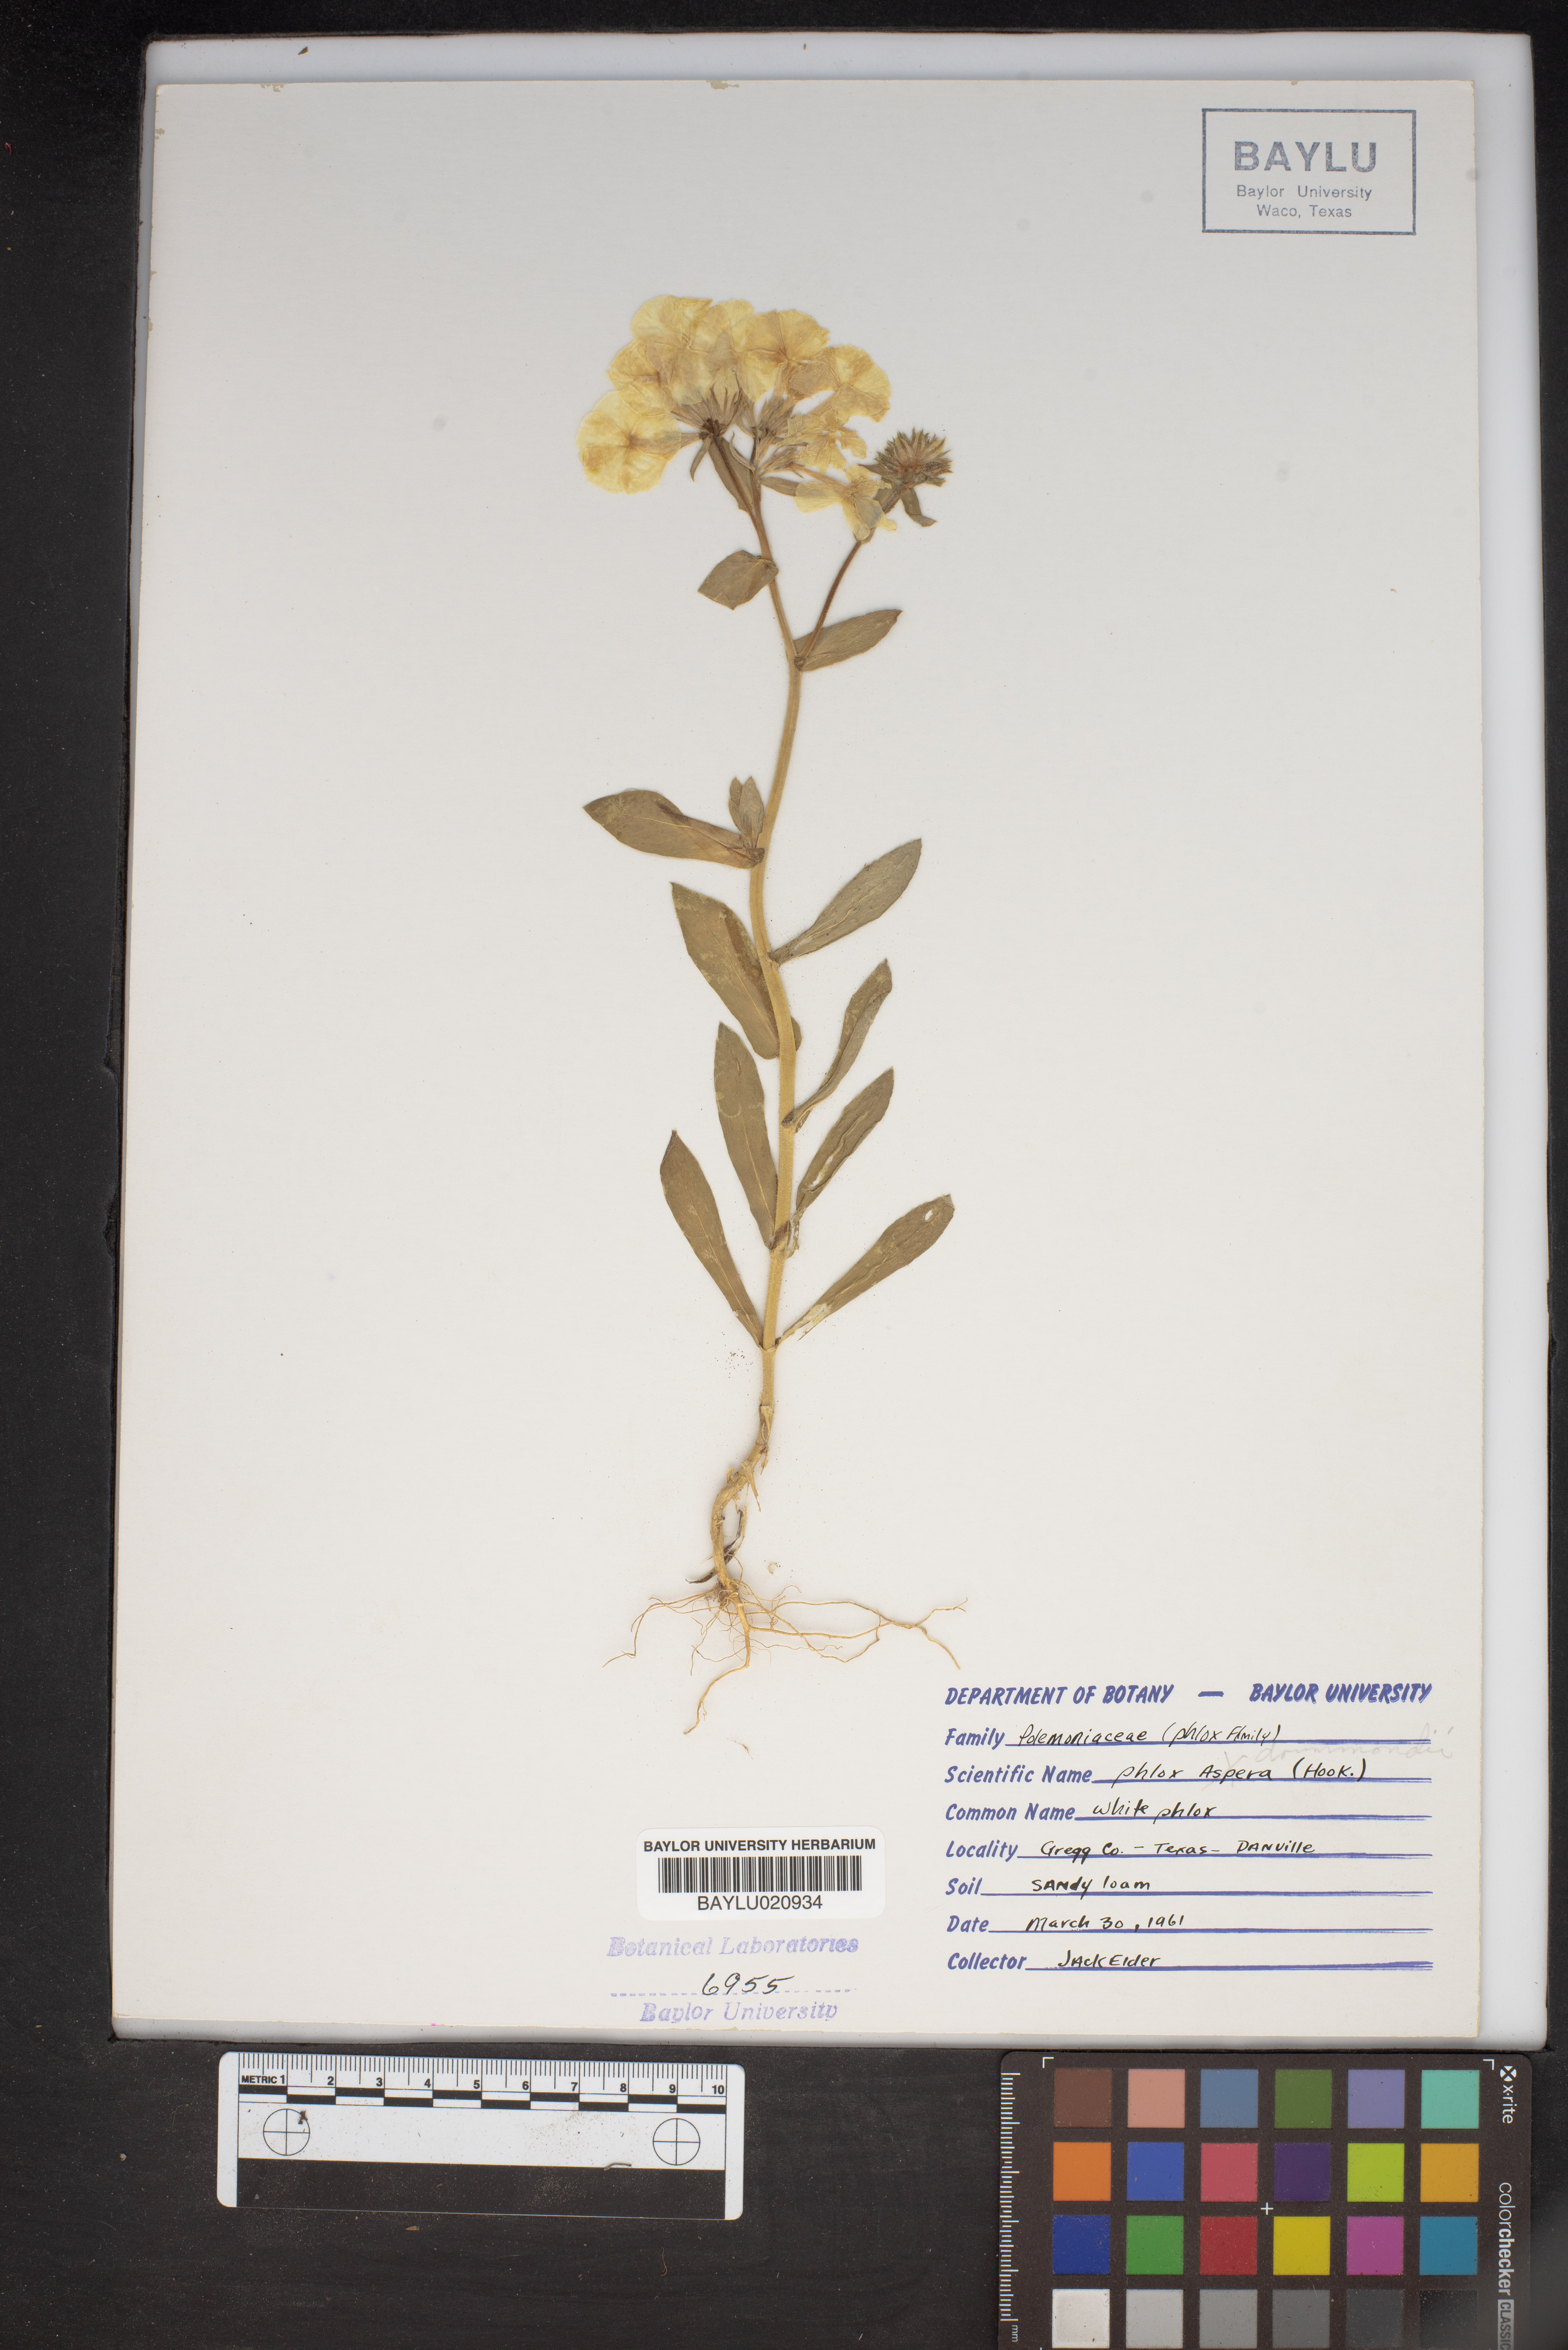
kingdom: Plantae
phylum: Tracheophyta
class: Magnoliopsida
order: Ericales
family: Polemoniaceae
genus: Phlox
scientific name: Phlox variabilis
